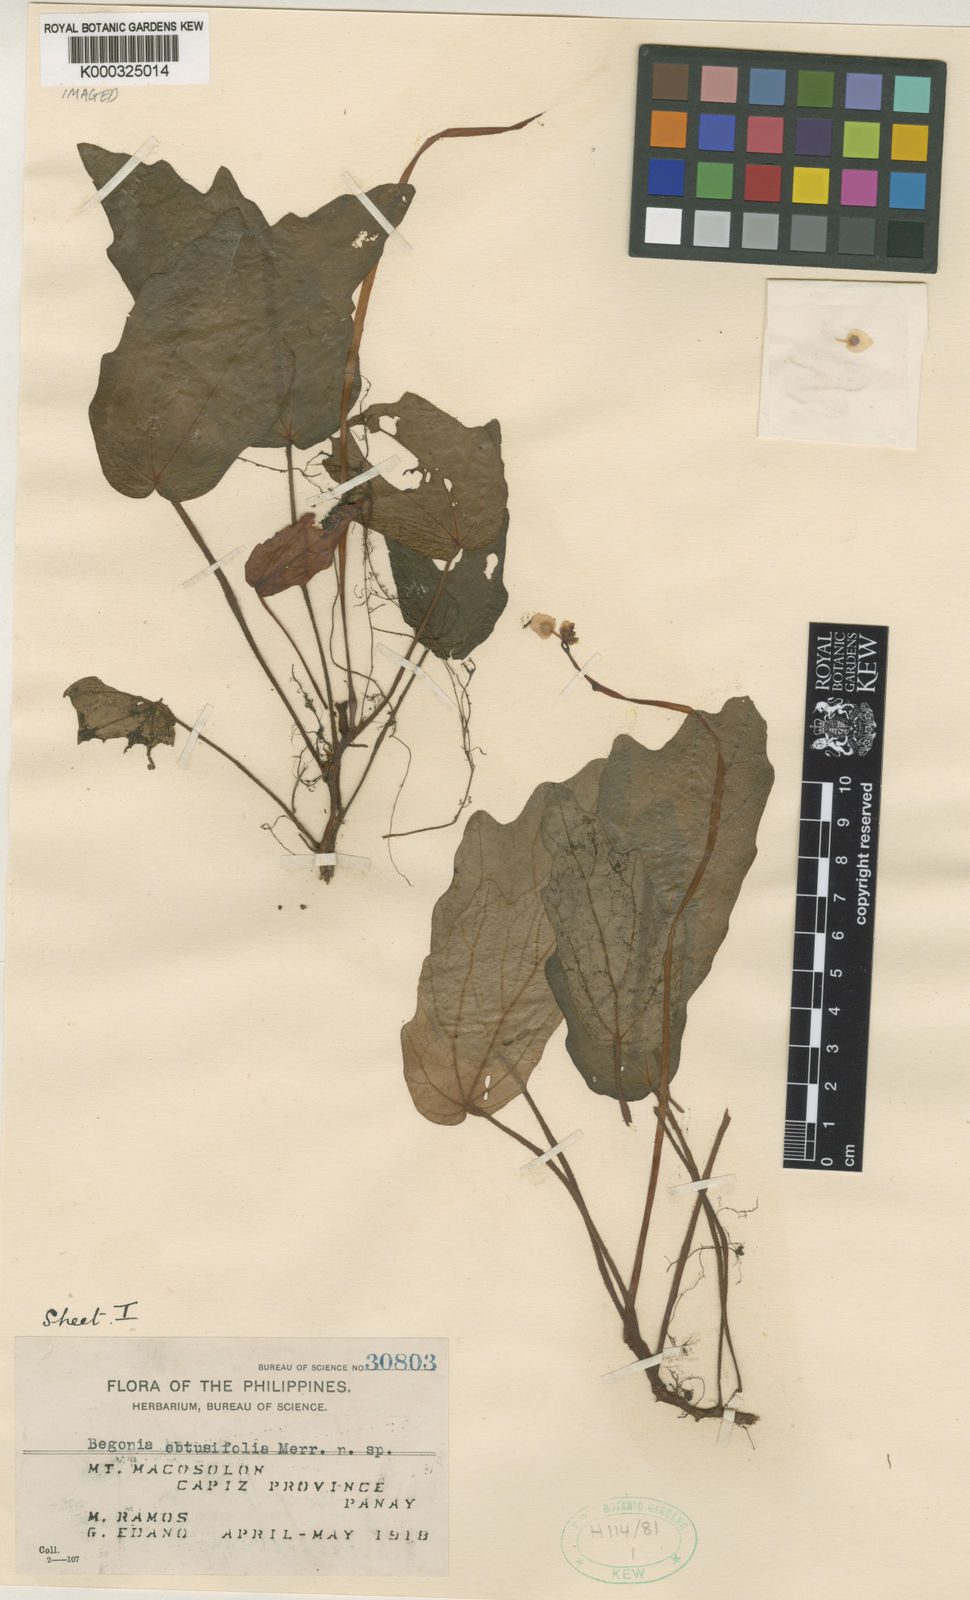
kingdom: Plantae
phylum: Tracheophyta
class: Magnoliopsida
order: Cucurbitales
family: Begoniaceae
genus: Begonia
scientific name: Begonia obtusifolia
